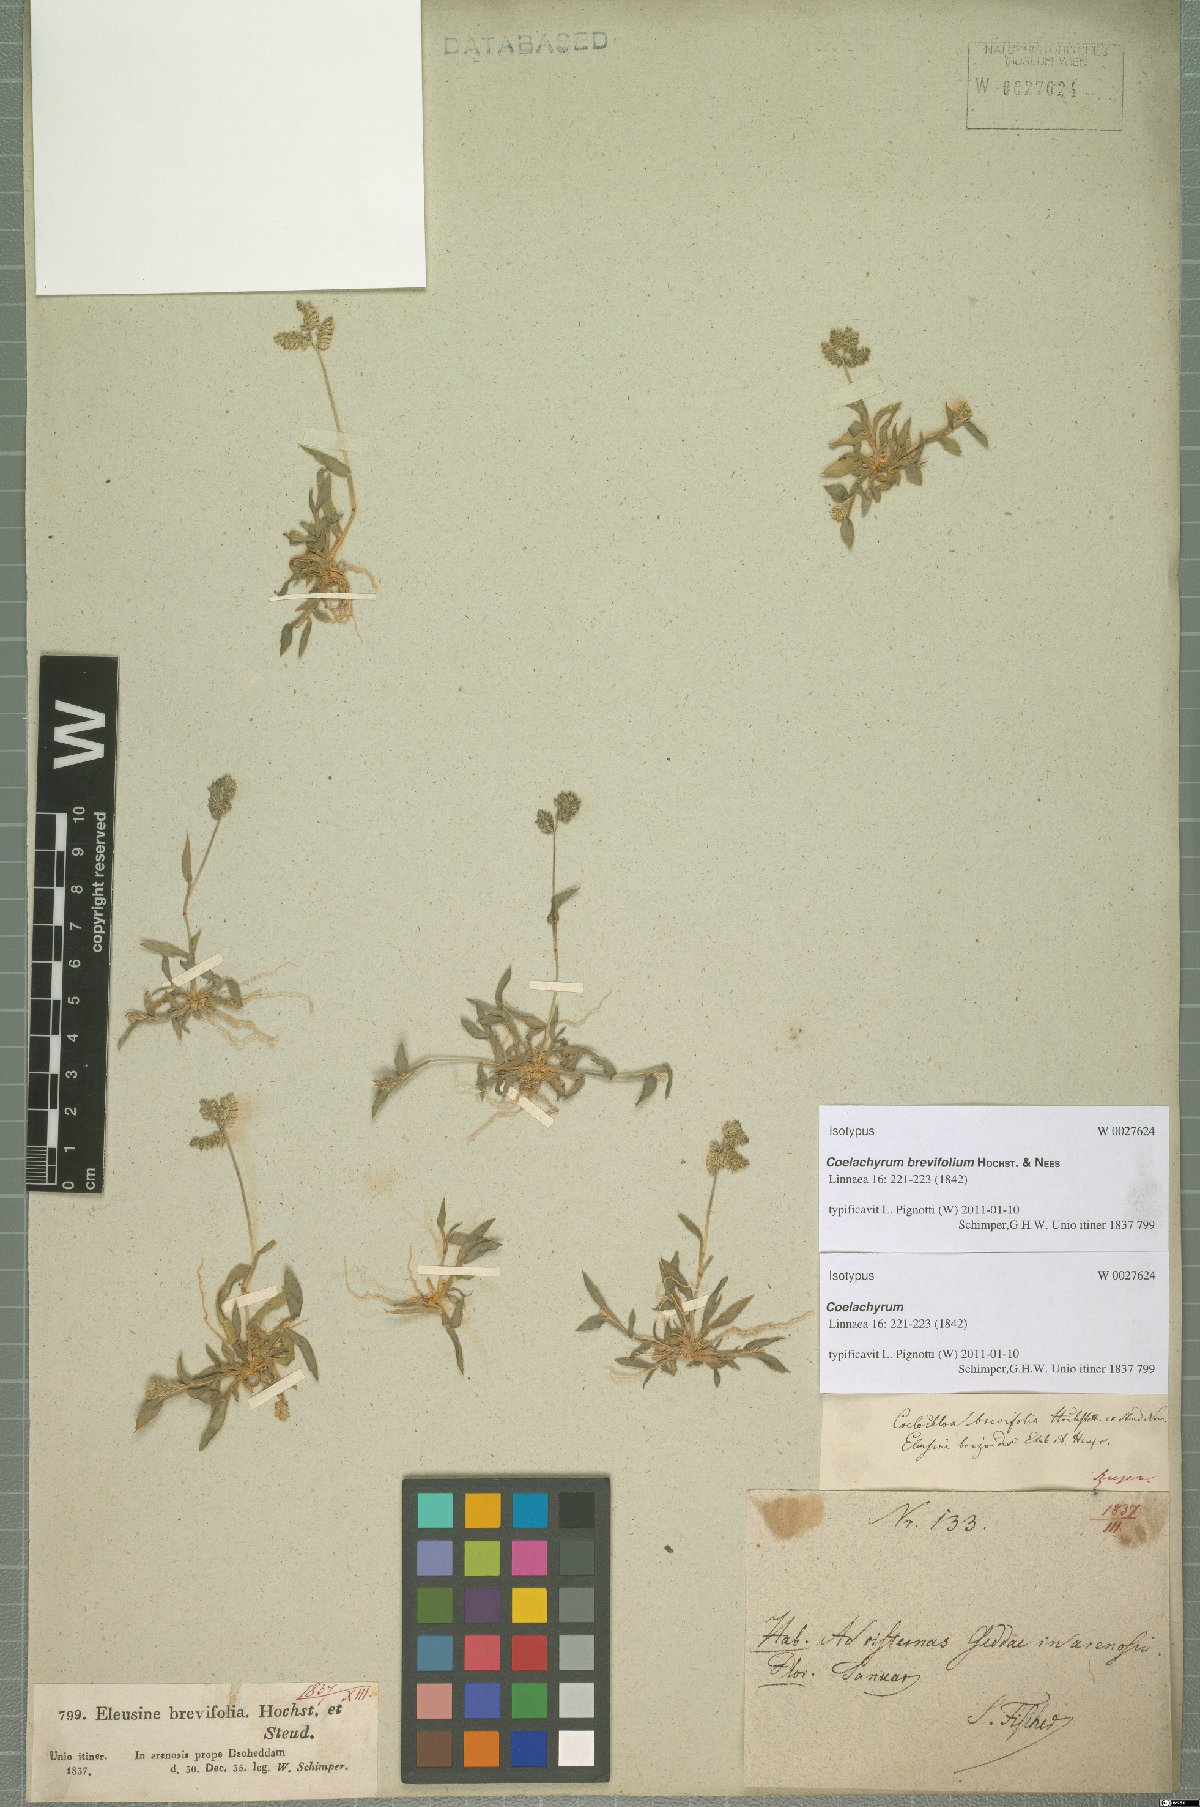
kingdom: Plantae
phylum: Tracheophyta
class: Liliopsida
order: Poales
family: Poaceae
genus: Coelachyrum
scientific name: Coelachyrum brevifolium
